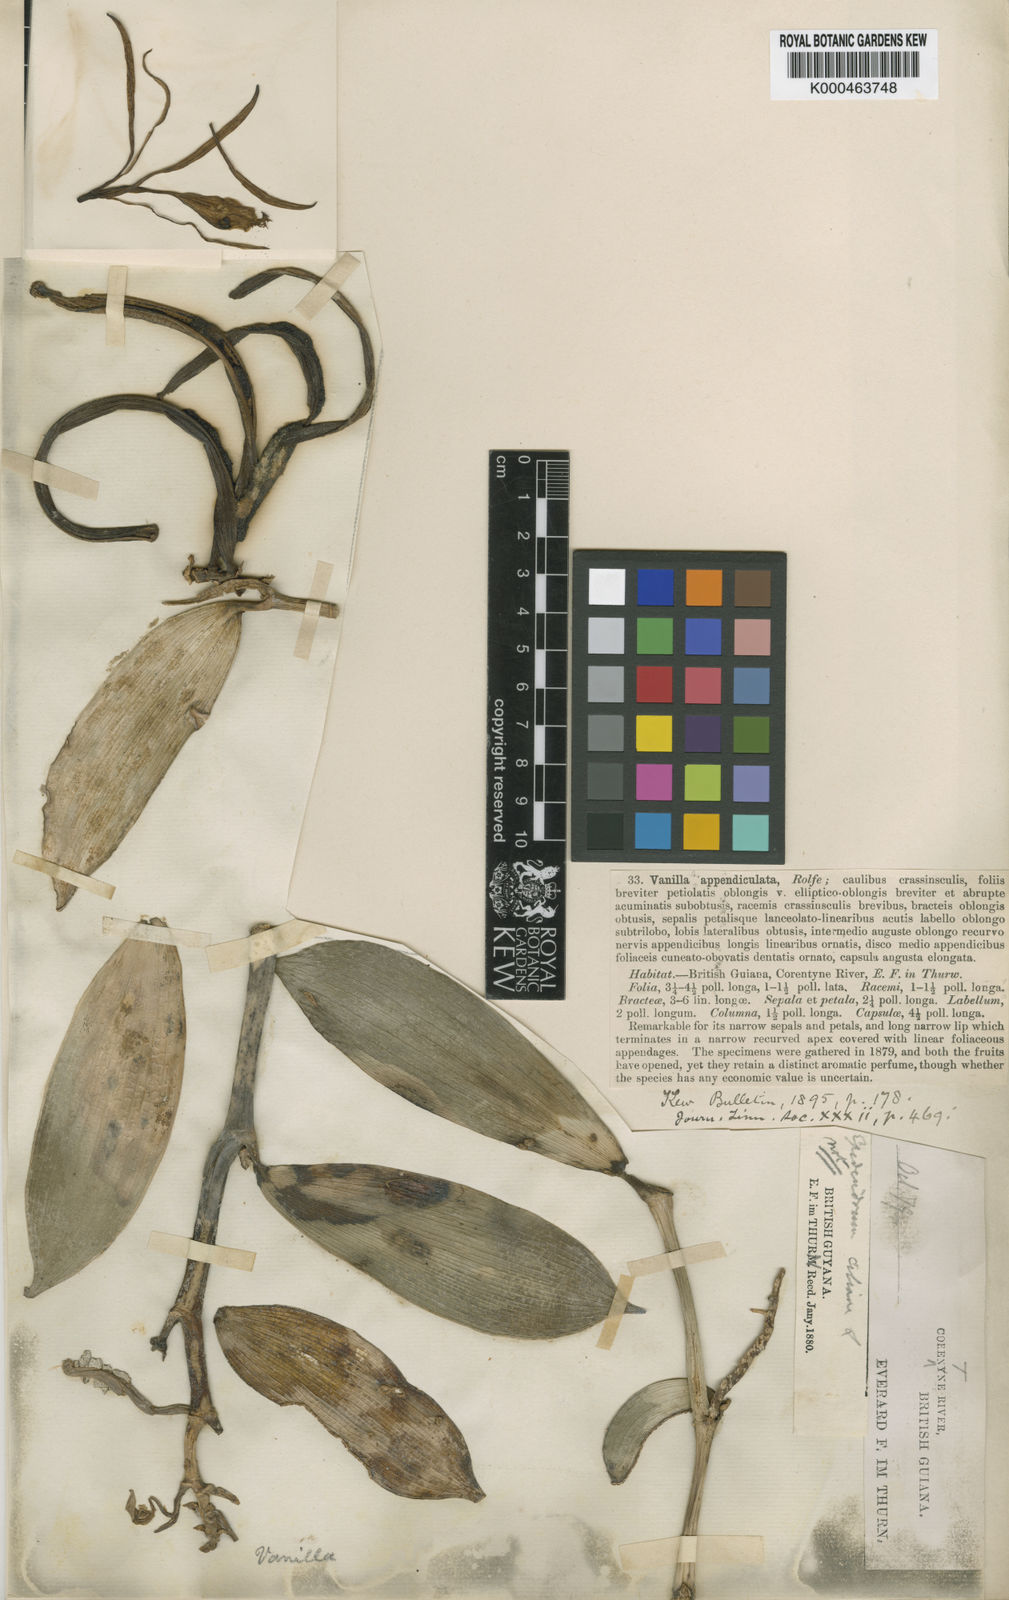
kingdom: Plantae
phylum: Tracheophyta
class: Liliopsida
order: Asparagales
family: Orchidaceae
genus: Vanilla
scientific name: Vanilla appendiculata
